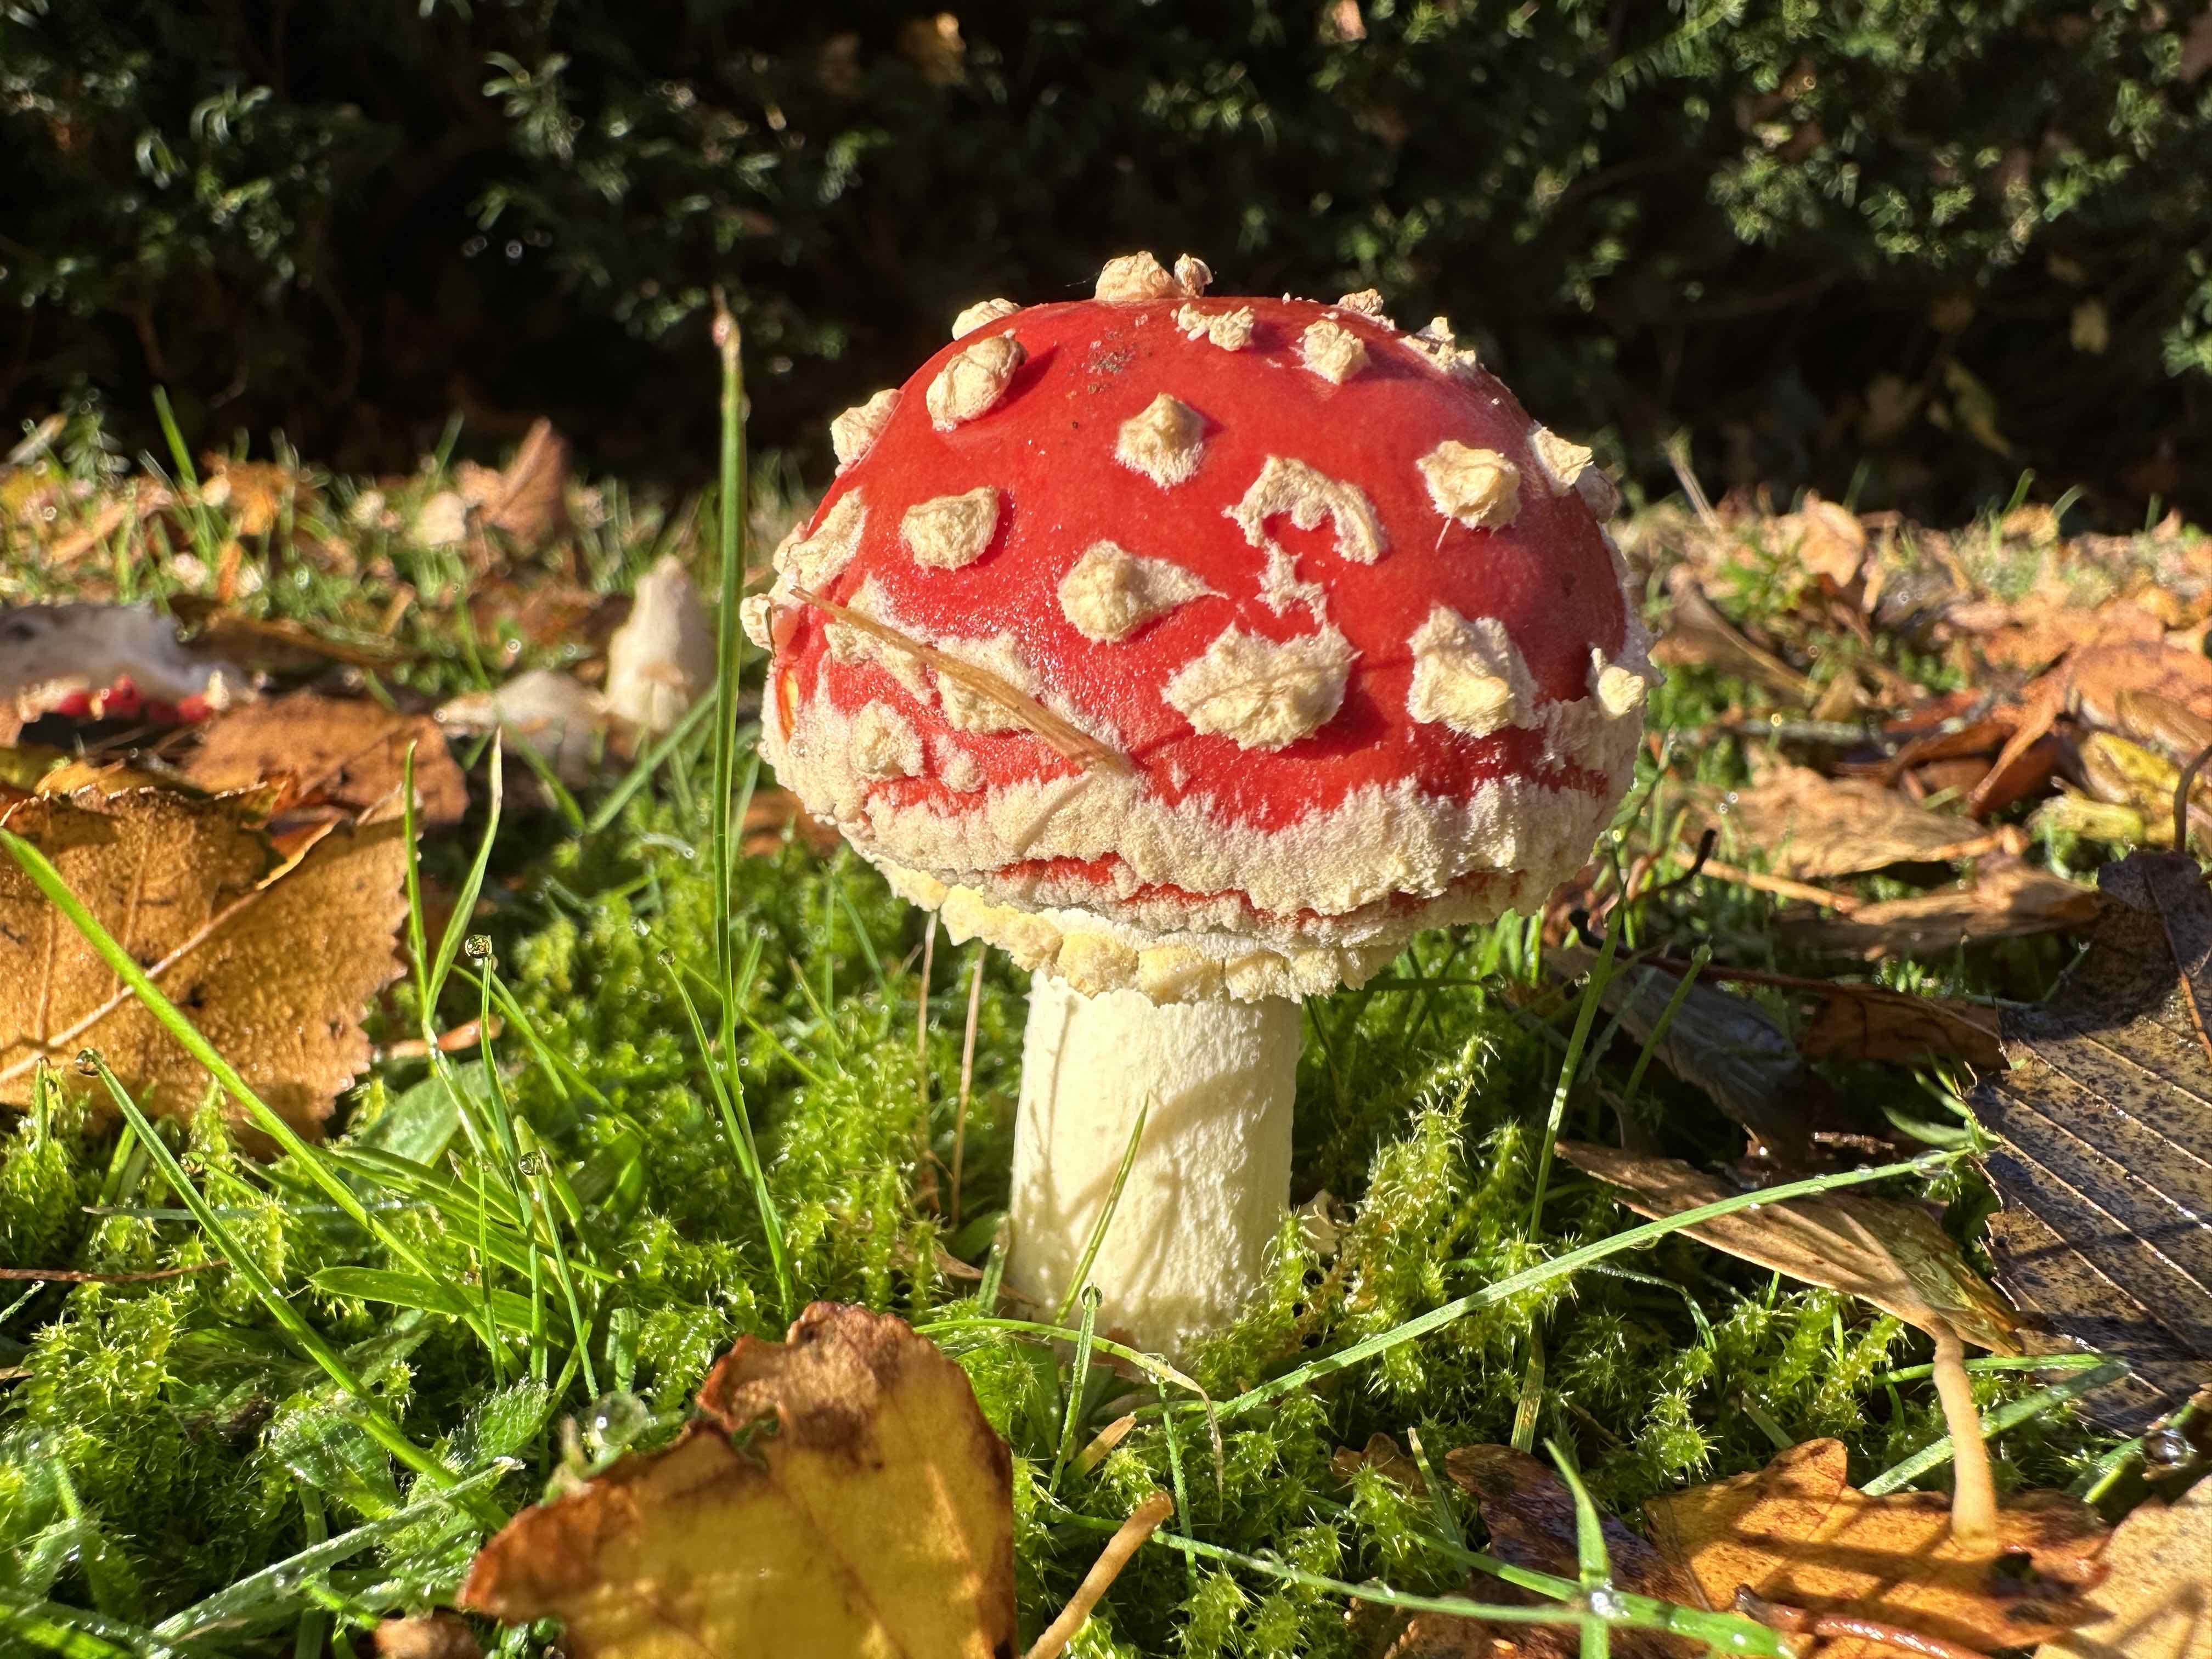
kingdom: Fungi
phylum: Basidiomycota
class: Agaricomycetes
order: Agaricales
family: Amanitaceae
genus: Amanita
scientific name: Amanita muscaria
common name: rød fluesvamp
